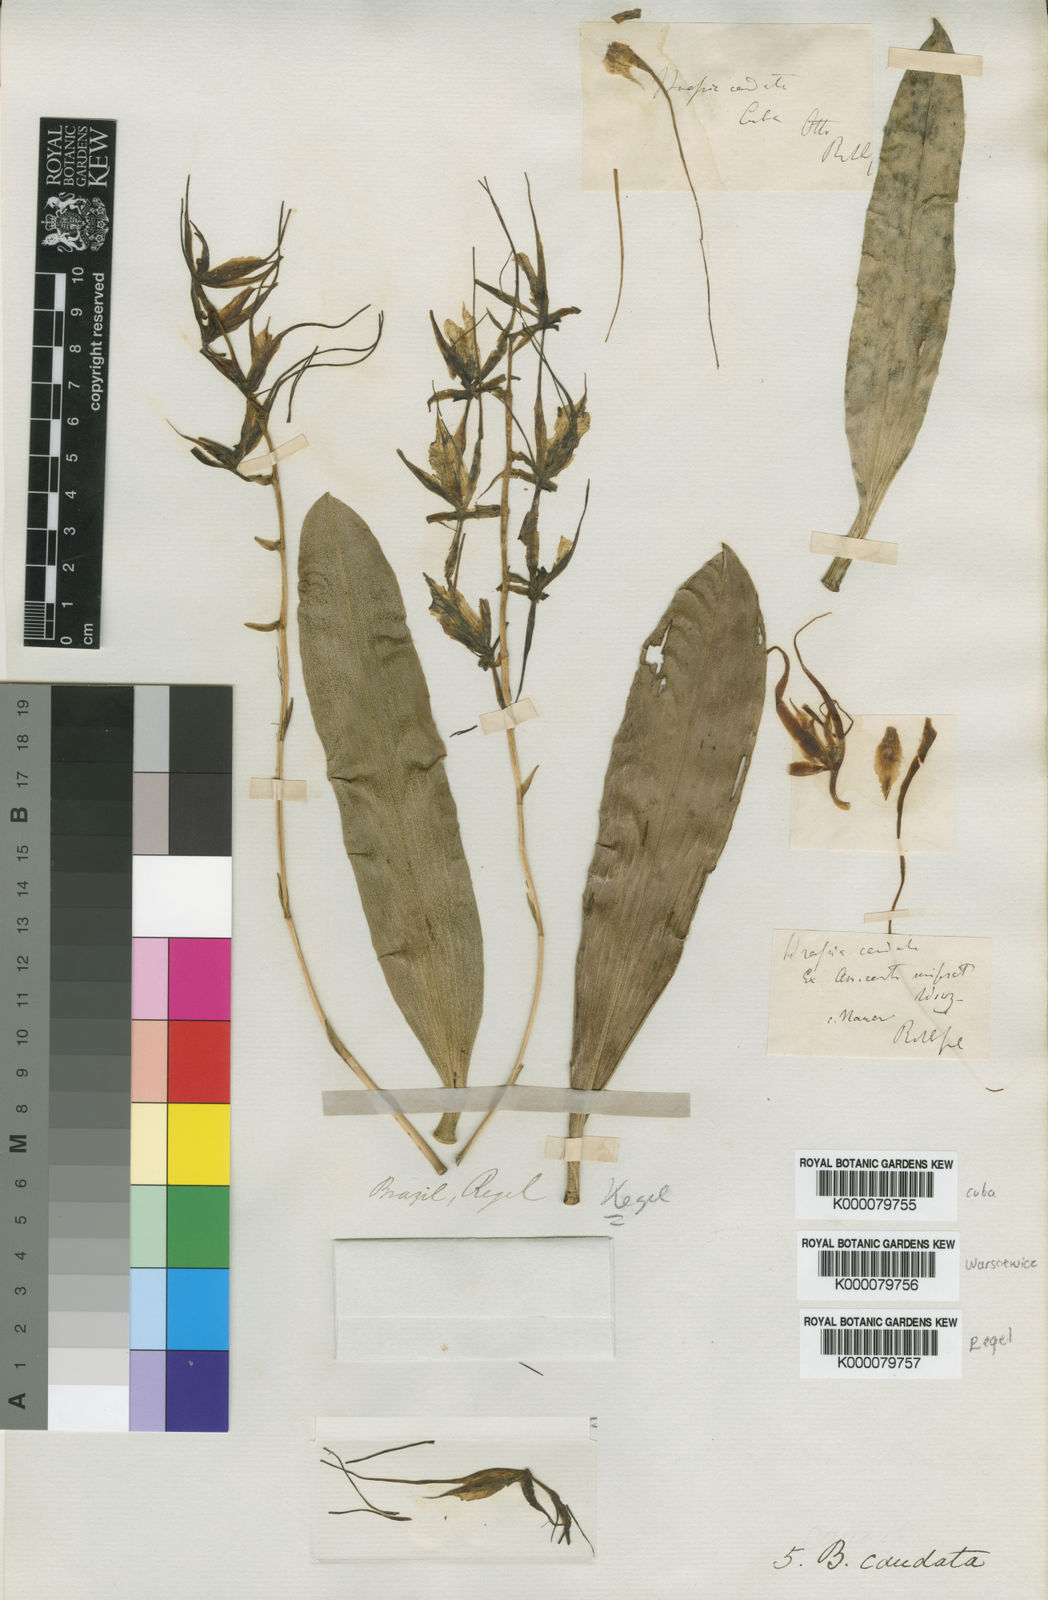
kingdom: Plantae
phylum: Tracheophyta
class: Liliopsida
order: Asparagales
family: Orchidaceae
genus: Brassia
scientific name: Brassia caudata
